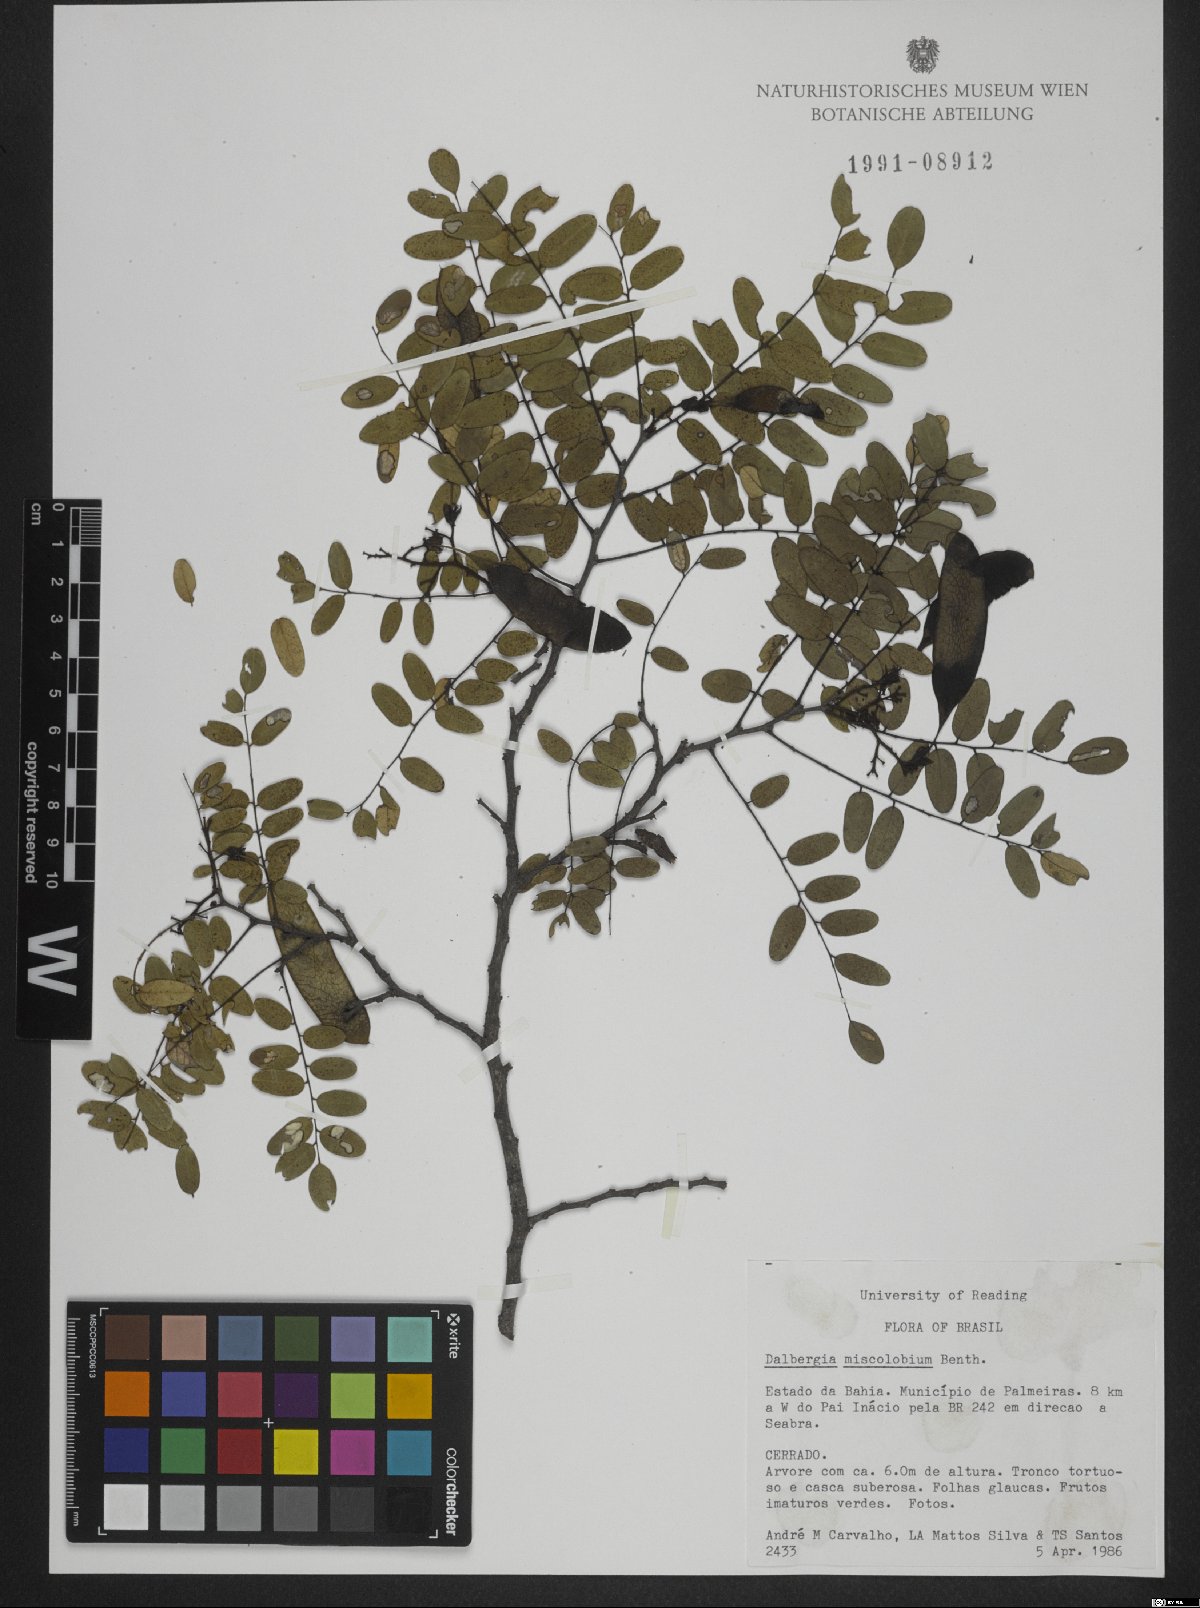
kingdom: Plantae
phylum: Tracheophyta
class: Magnoliopsida
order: Fabales
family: Fabaceae
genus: Dalbergia
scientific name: Dalbergia miscolobium
